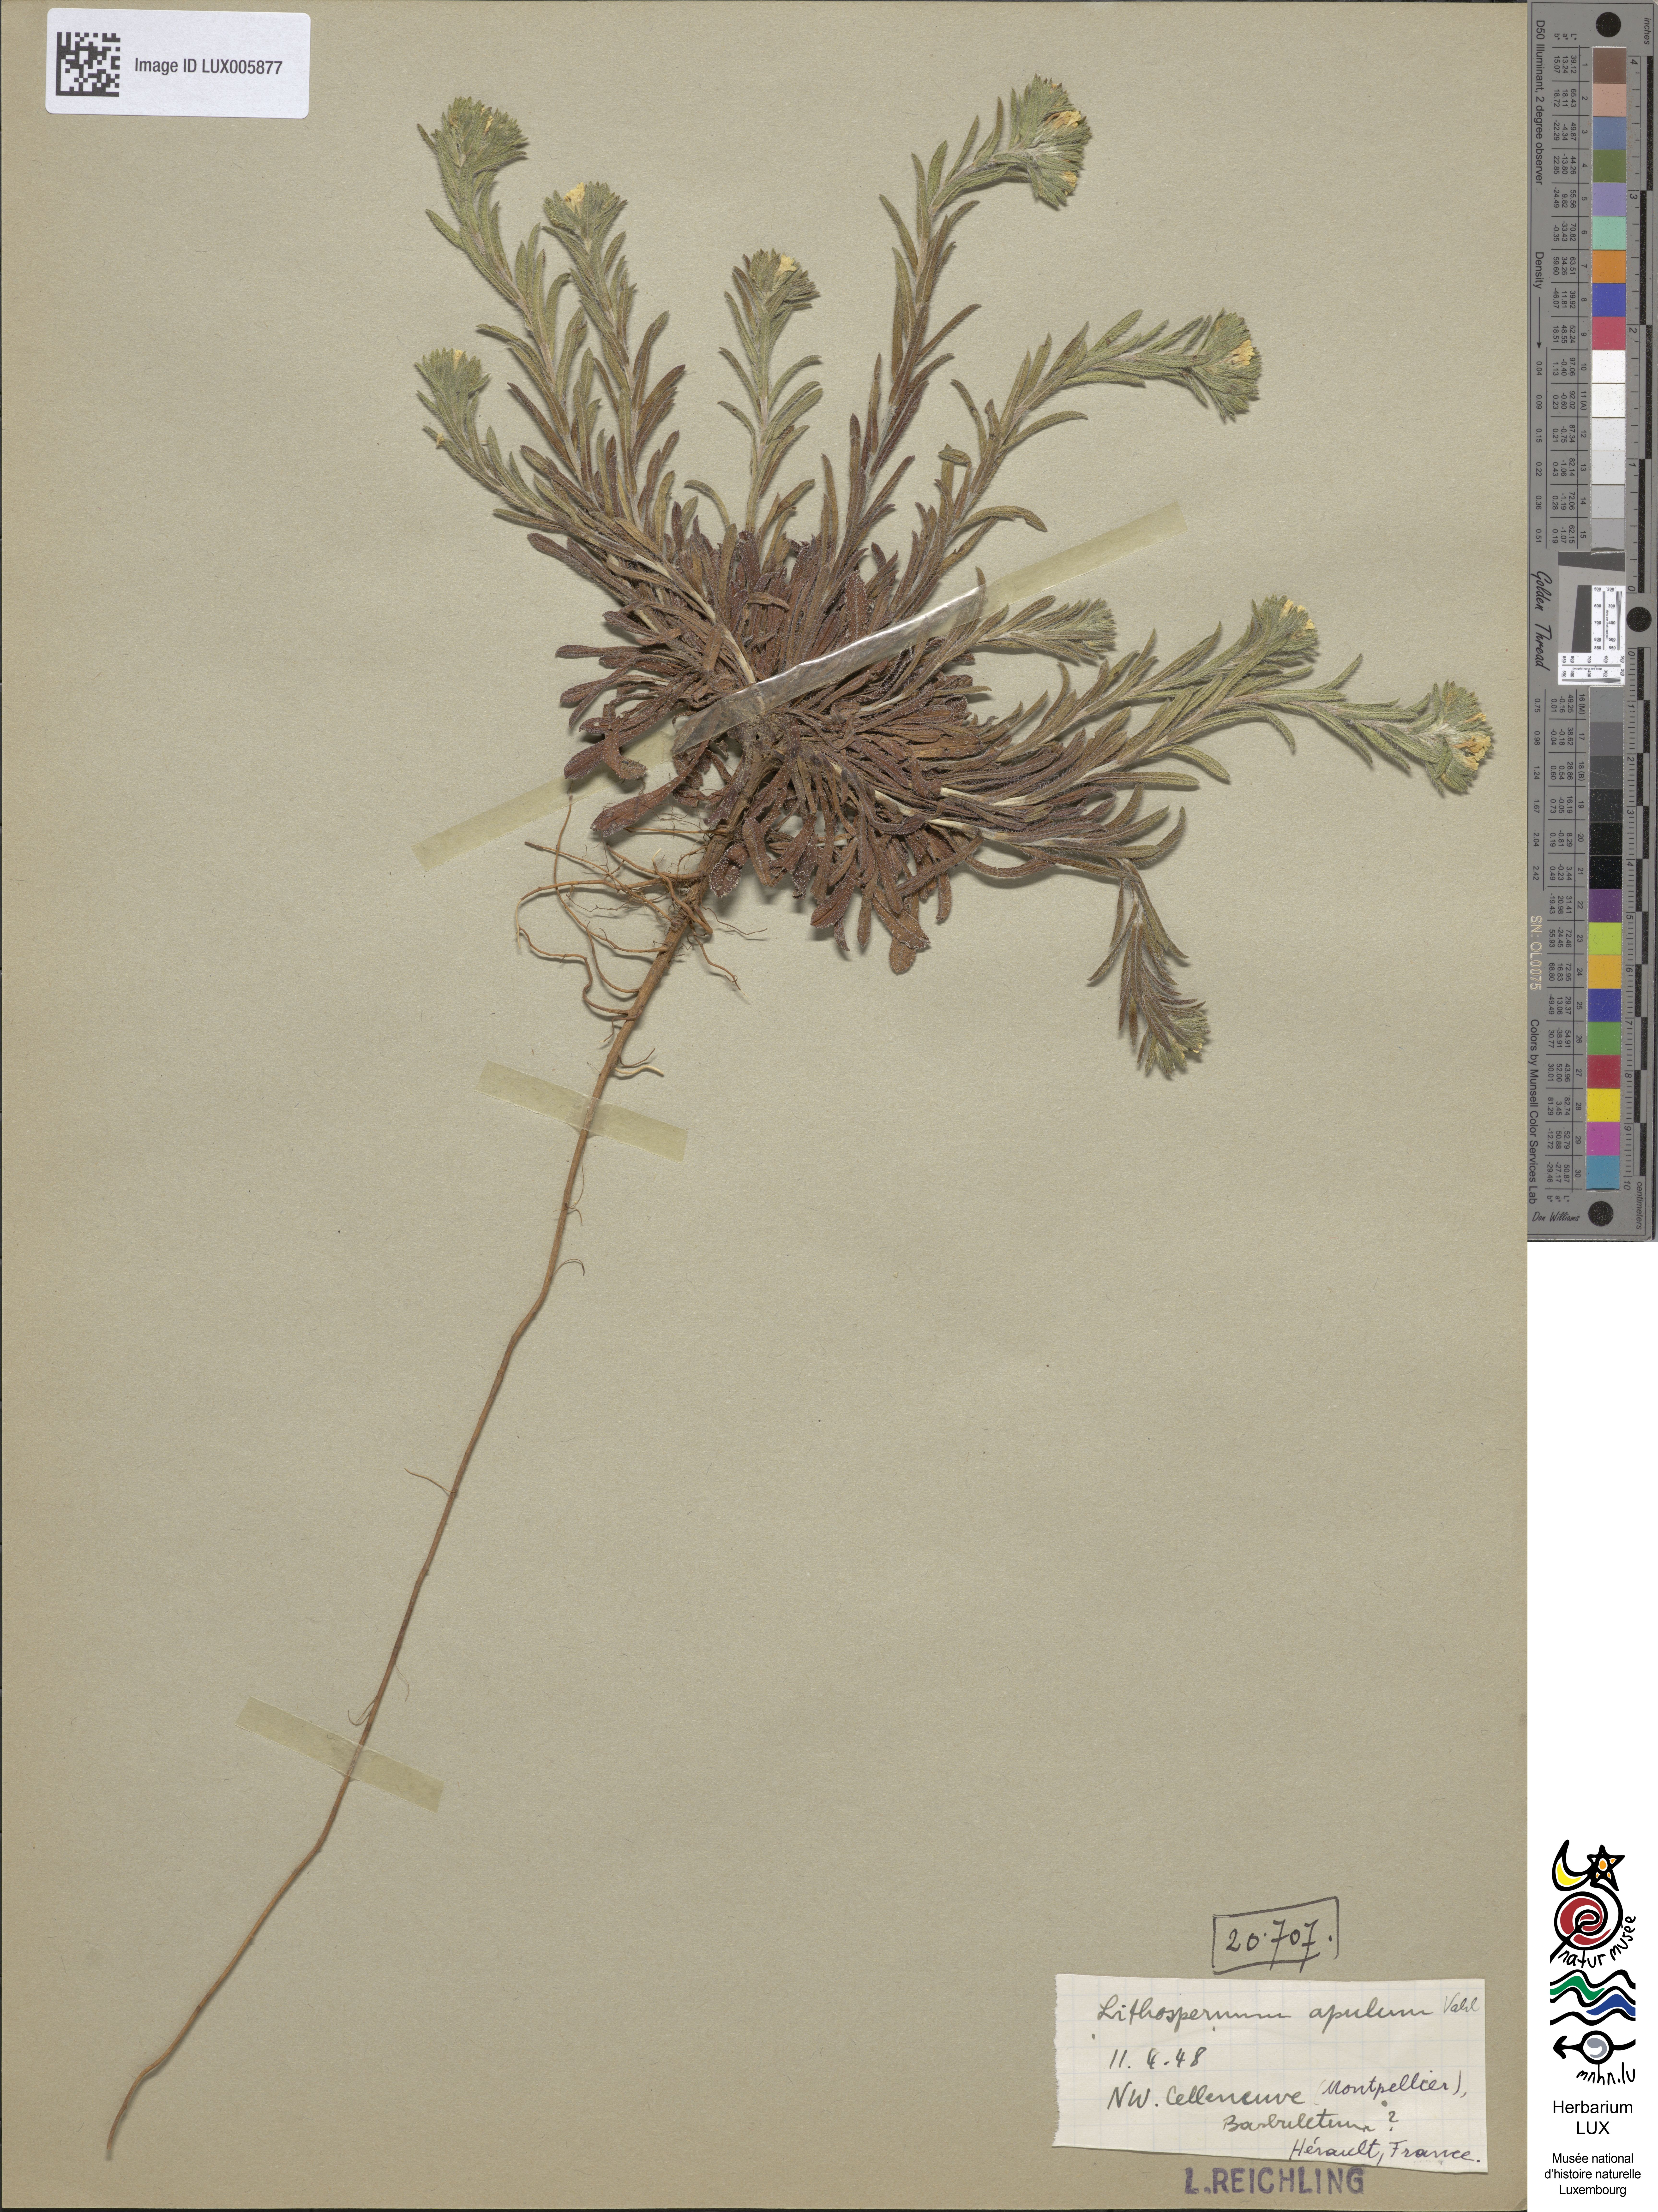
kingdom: Plantae
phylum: Tracheophyta
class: Magnoliopsida
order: Boraginales
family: Boraginaceae
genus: Neatostema
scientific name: Neatostema apulum
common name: Hairy sheepweed
